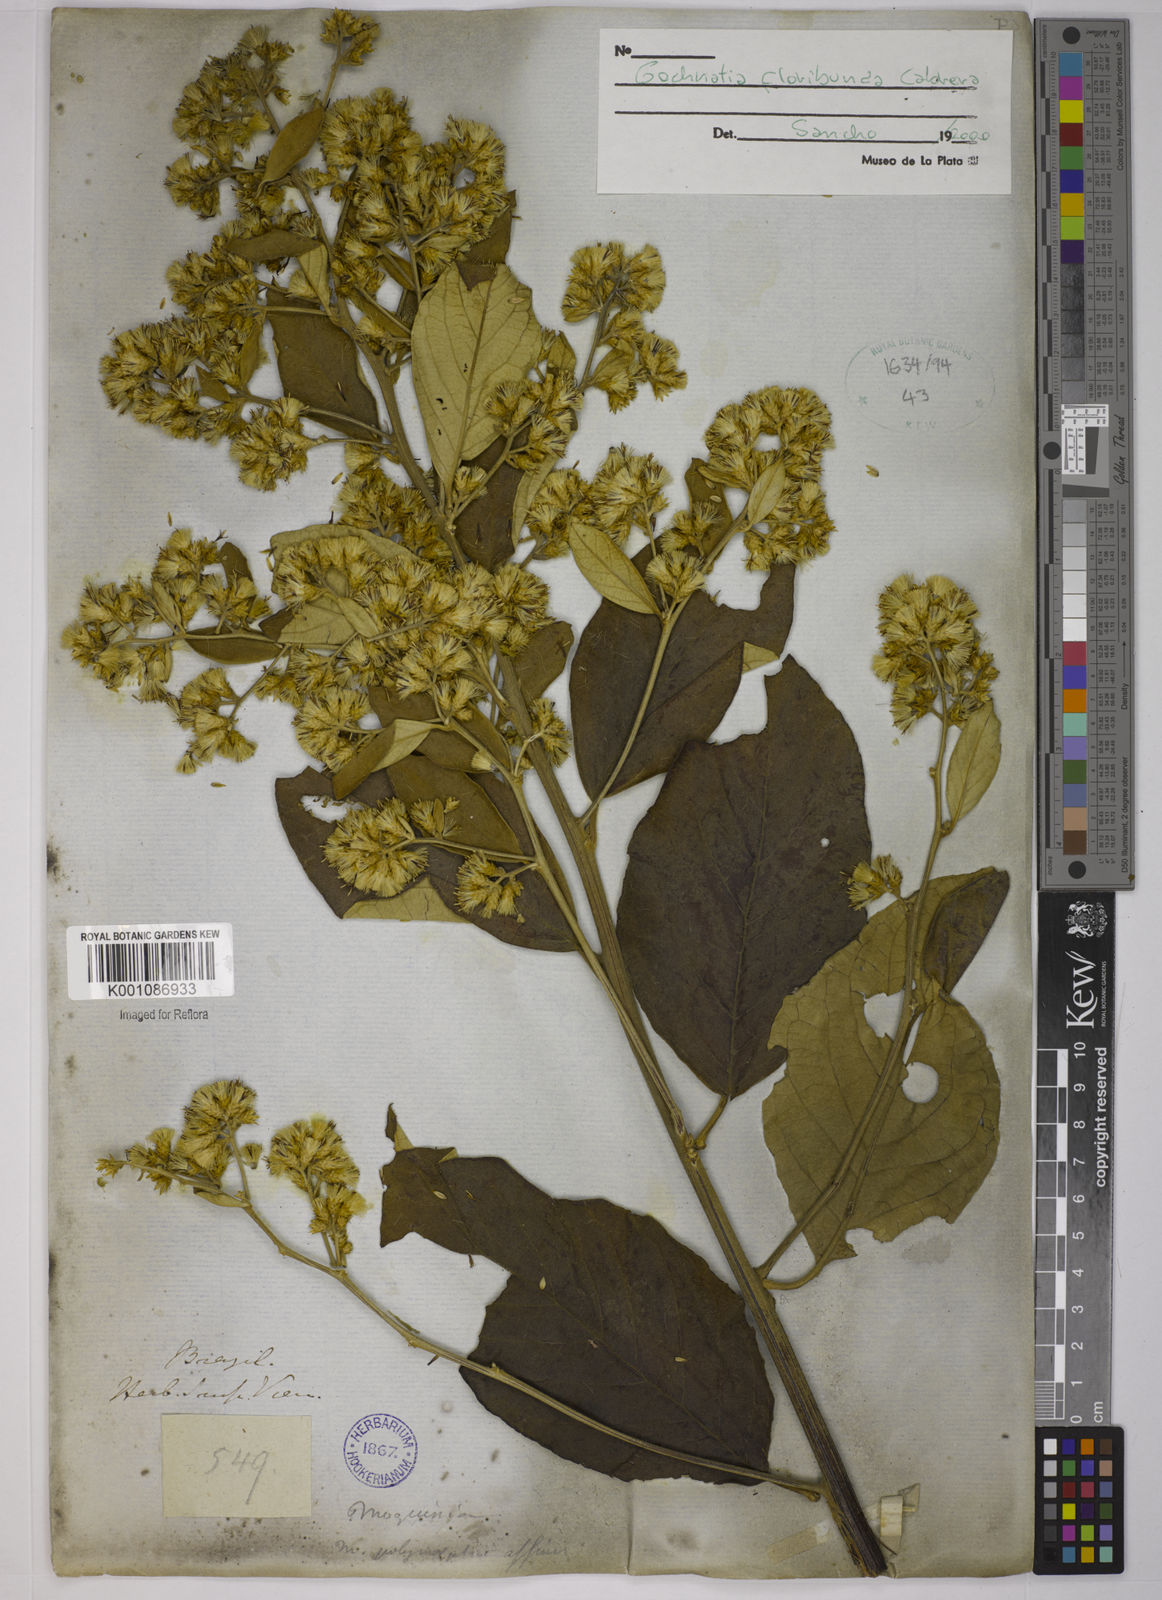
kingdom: Plantae
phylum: Tracheophyta
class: Magnoliopsida
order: Asterales
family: Asteraceae
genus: Moquiniastrum
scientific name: Moquiniastrum floribundum
